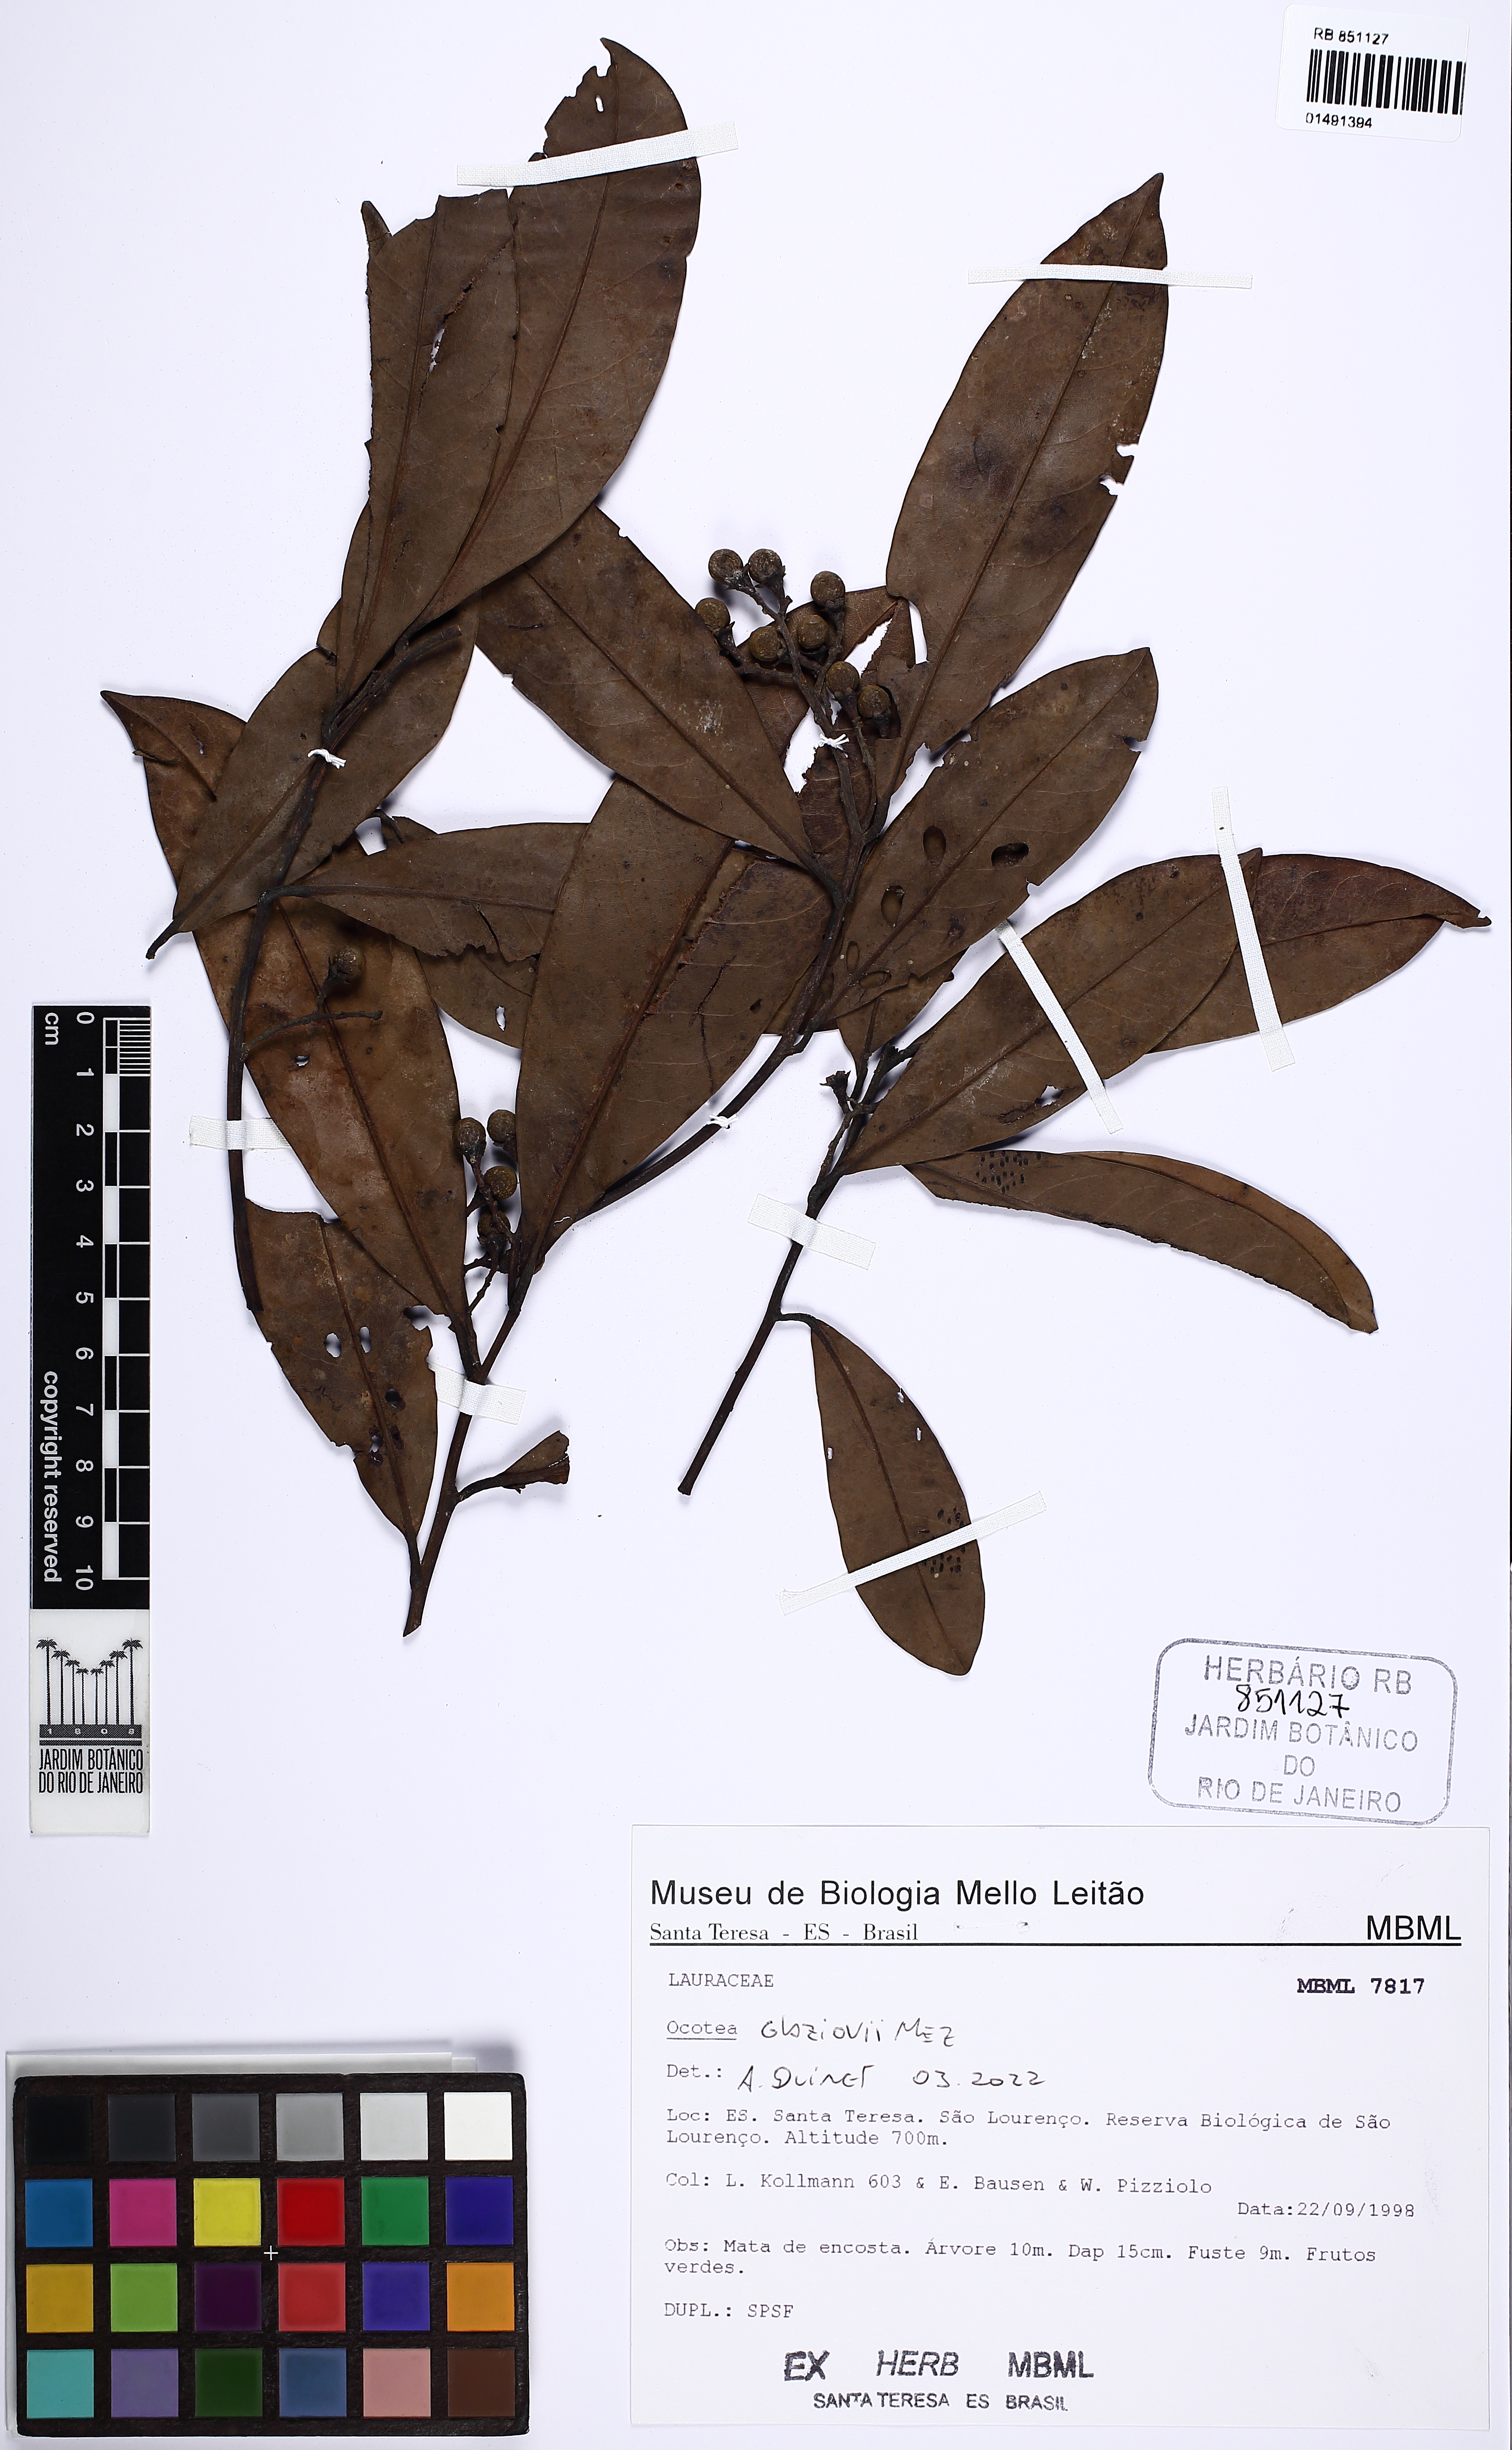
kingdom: Plantae
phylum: Tracheophyta
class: Magnoliopsida
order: Laurales
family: Lauraceae
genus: Ocotea
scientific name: Ocotea glaziovii
